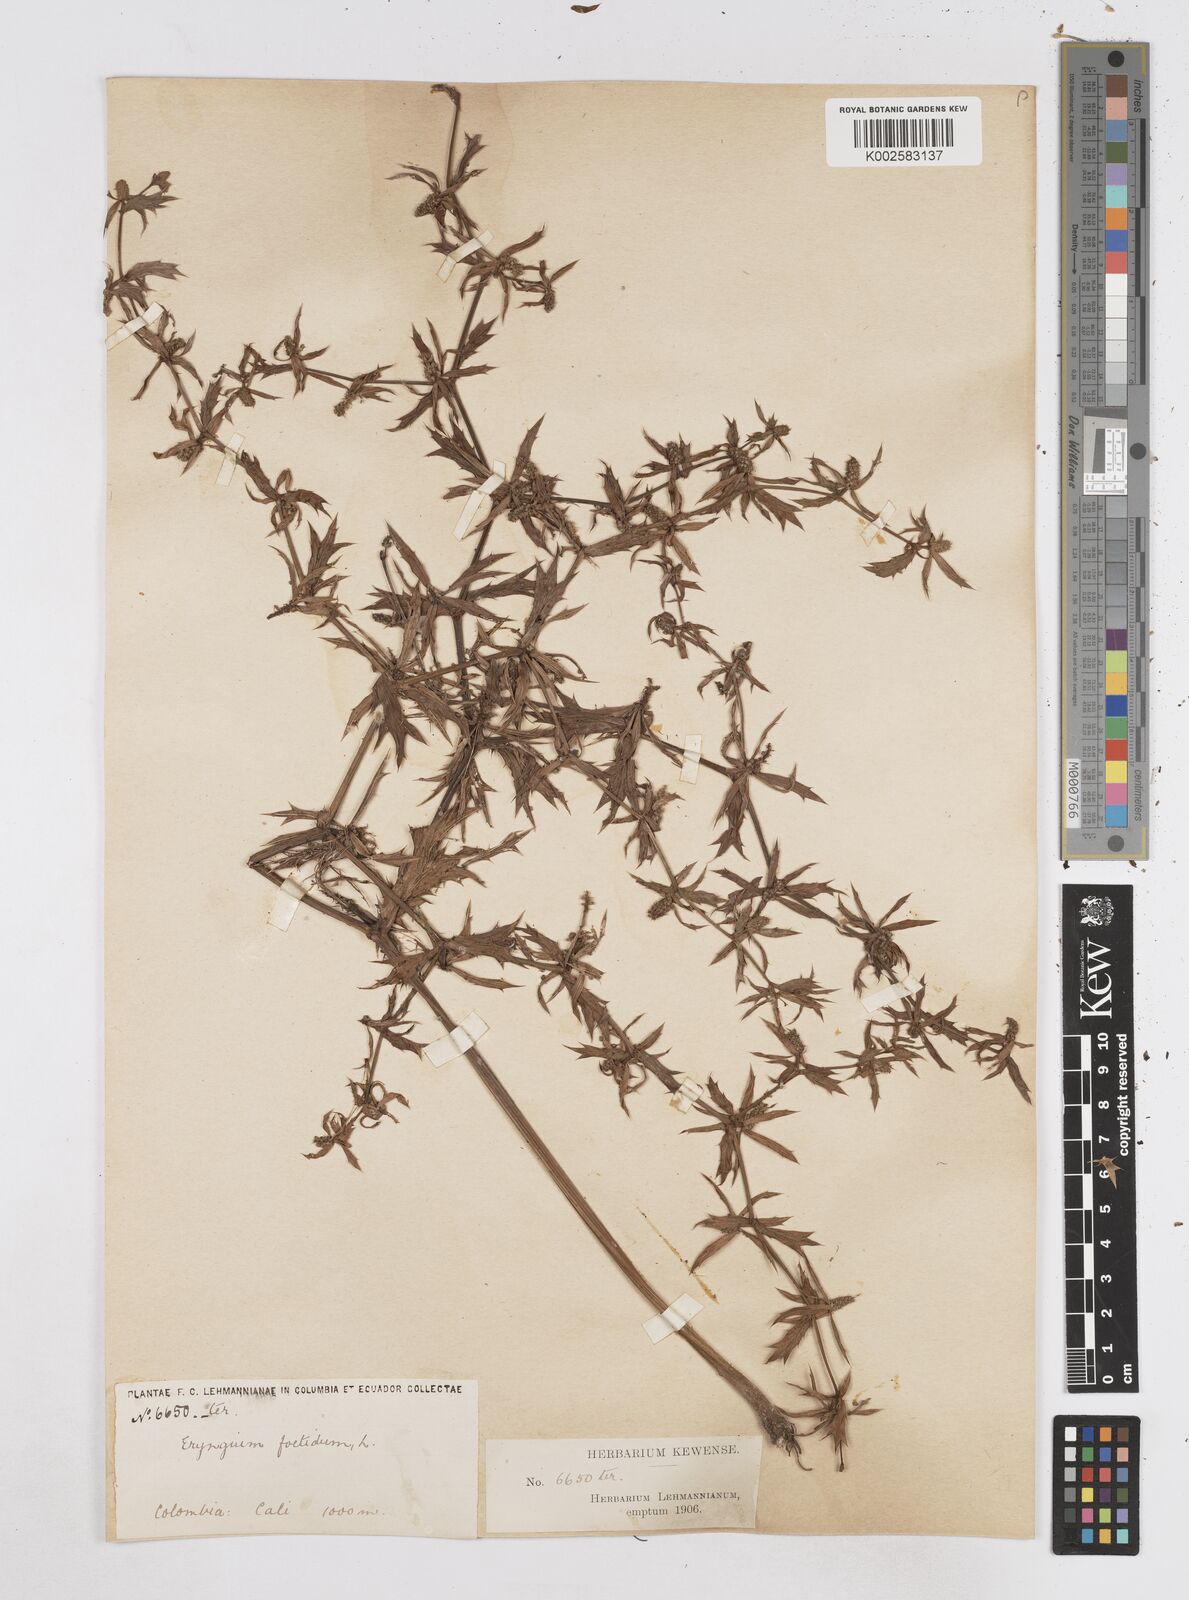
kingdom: Plantae
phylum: Tracheophyta
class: Magnoliopsida
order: Apiales
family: Apiaceae
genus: Eryngium
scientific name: Eryngium foetidum
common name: Fitweed
